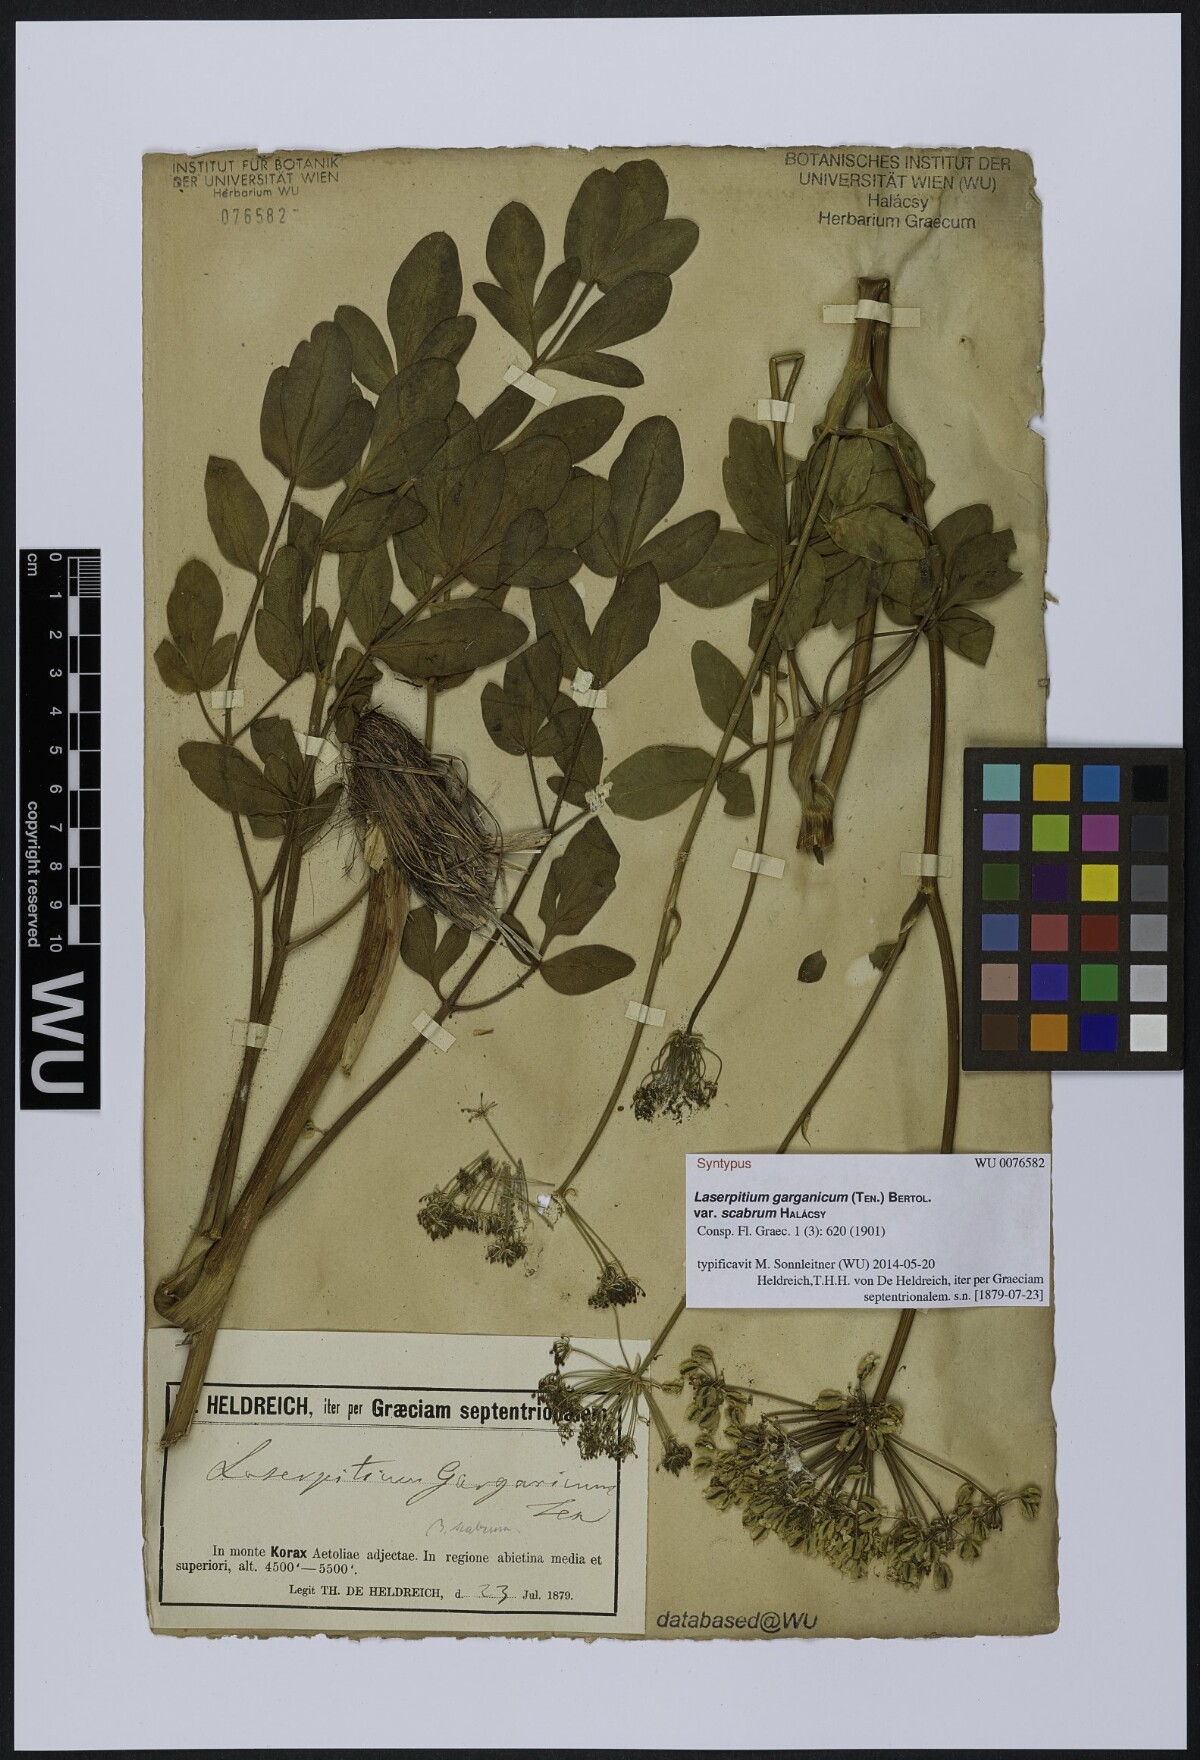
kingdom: Plantae
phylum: Tracheophyta
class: Magnoliopsida
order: Apiales
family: Apiaceae
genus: Siler
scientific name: Siler zernyi
